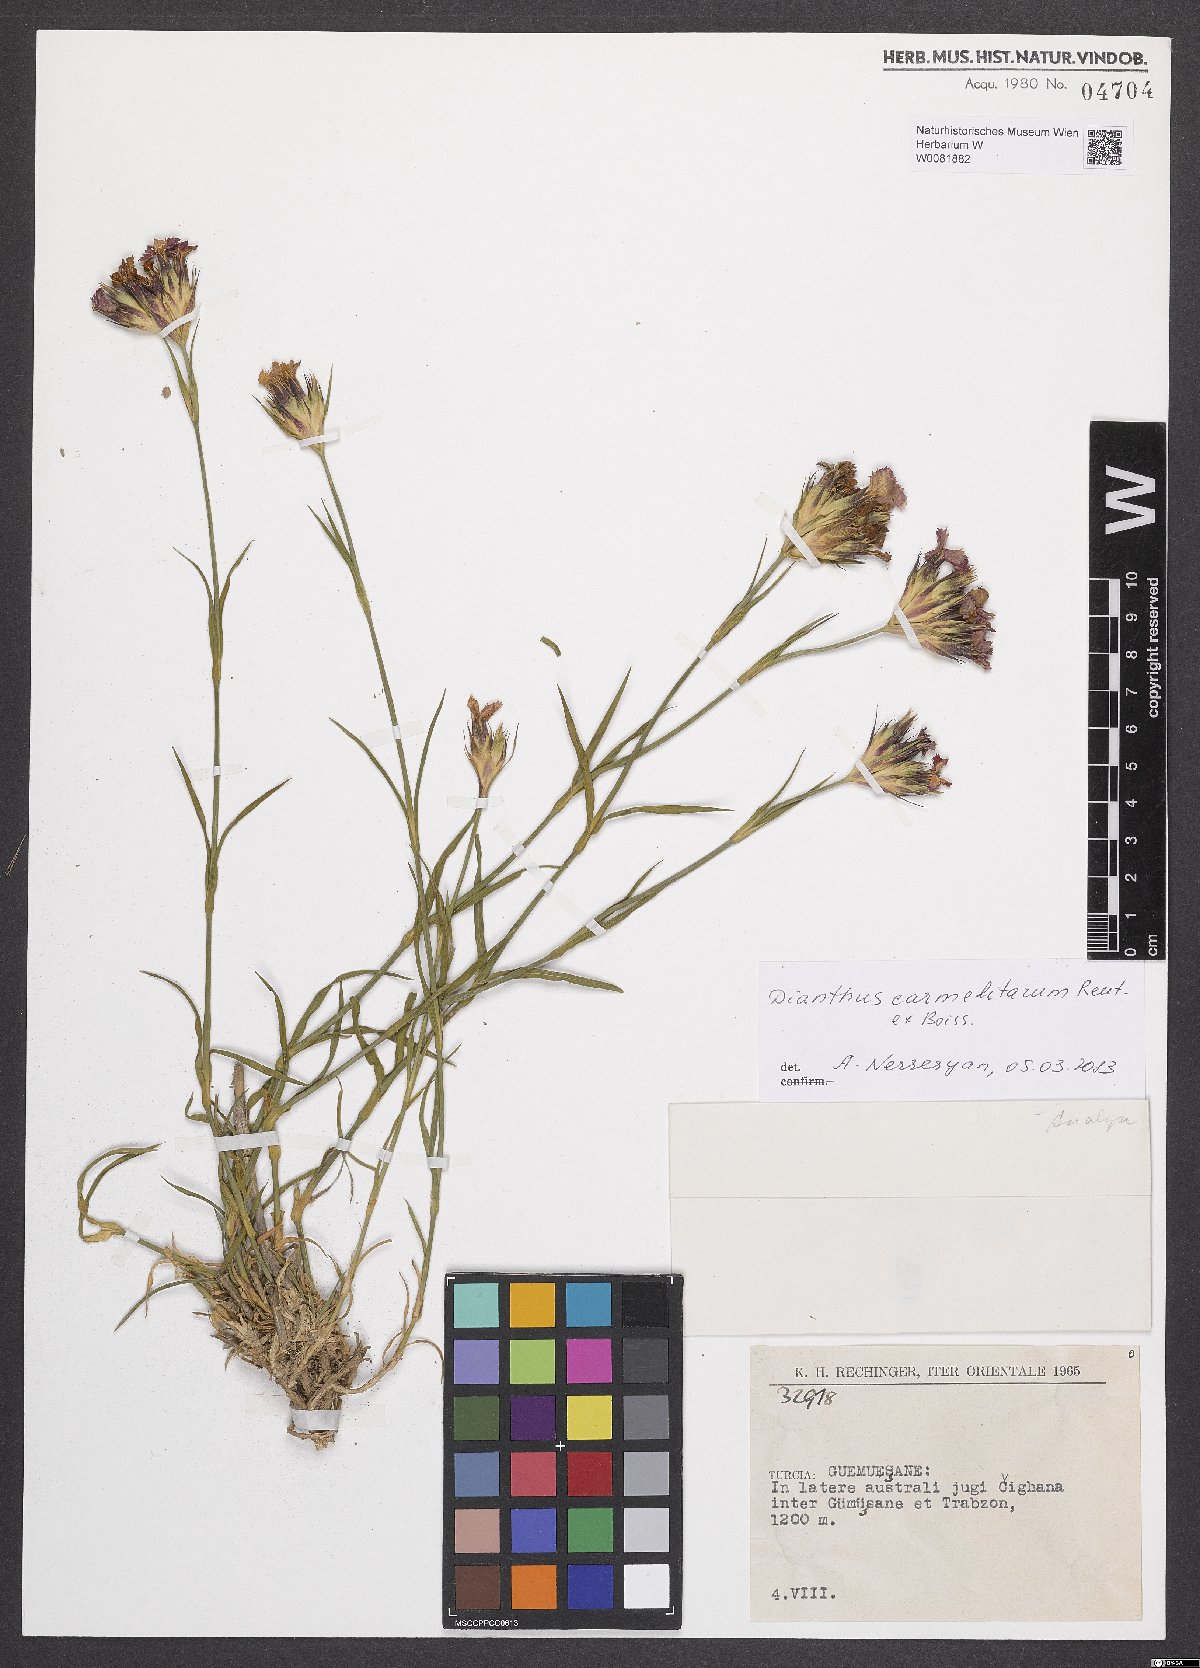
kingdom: Plantae
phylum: Tracheophyta
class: Magnoliopsida
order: Caryophyllales
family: Caryophyllaceae
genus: Dianthus
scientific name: Dianthus carmelitarum
